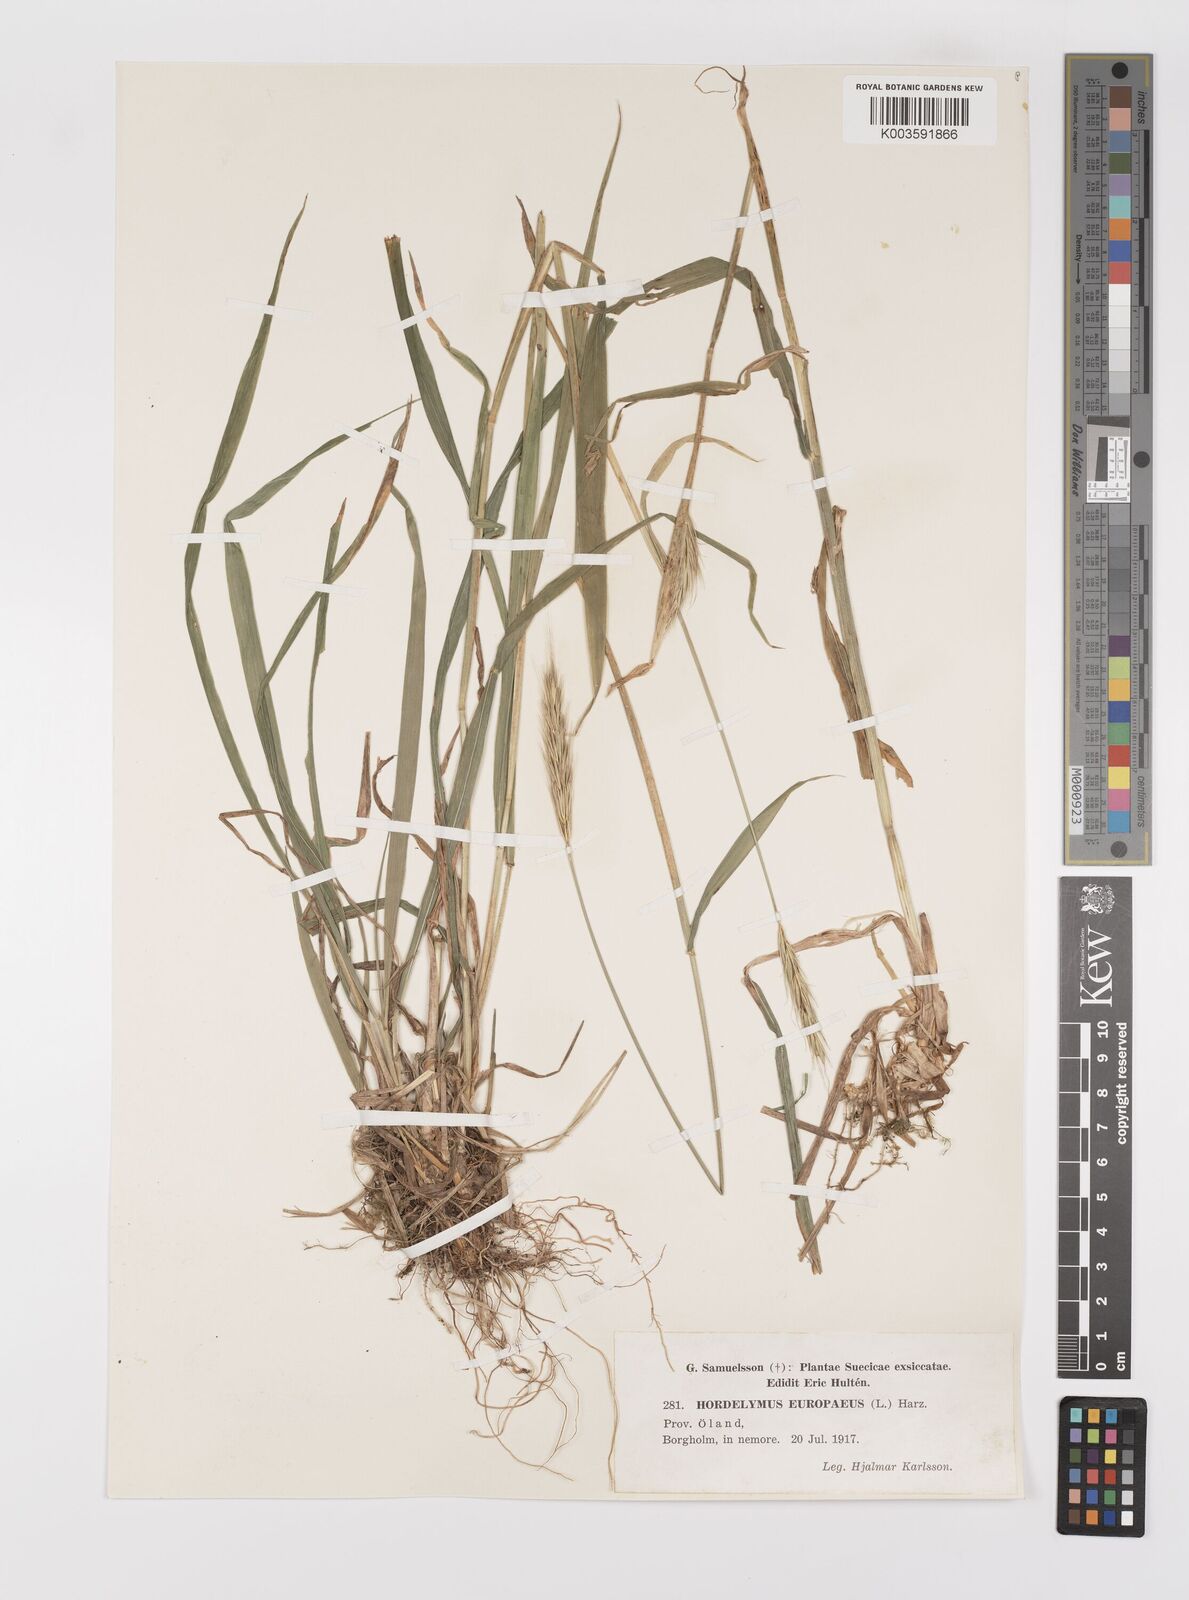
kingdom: Plantae
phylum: Tracheophyta
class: Liliopsida
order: Poales
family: Poaceae
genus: Hordelymus
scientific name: Hordelymus europaeus
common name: Wood-barley
